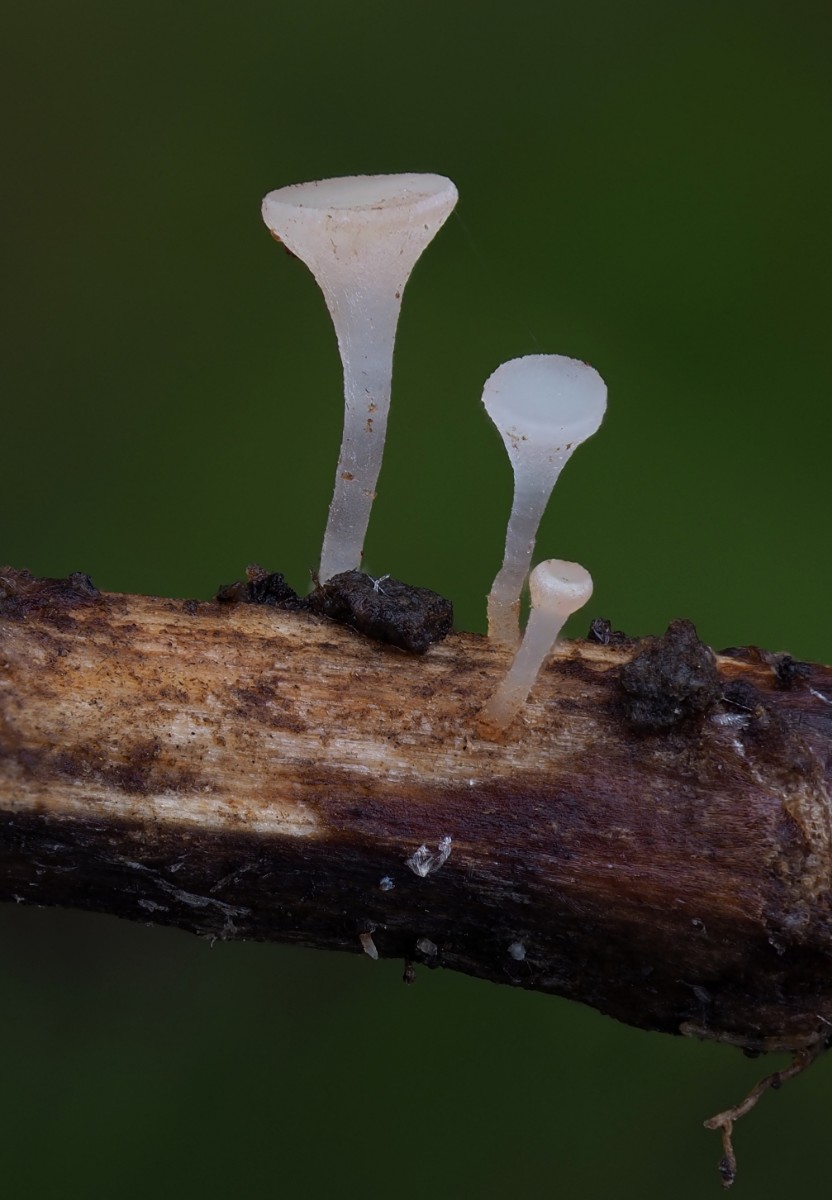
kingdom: Fungi
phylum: Ascomycota
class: Leotiomycetes
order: Helotiales
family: Helotiaceae
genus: Hymenoscyphus
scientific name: Hymenoscyphus scutula
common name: almindelig stilkskive
